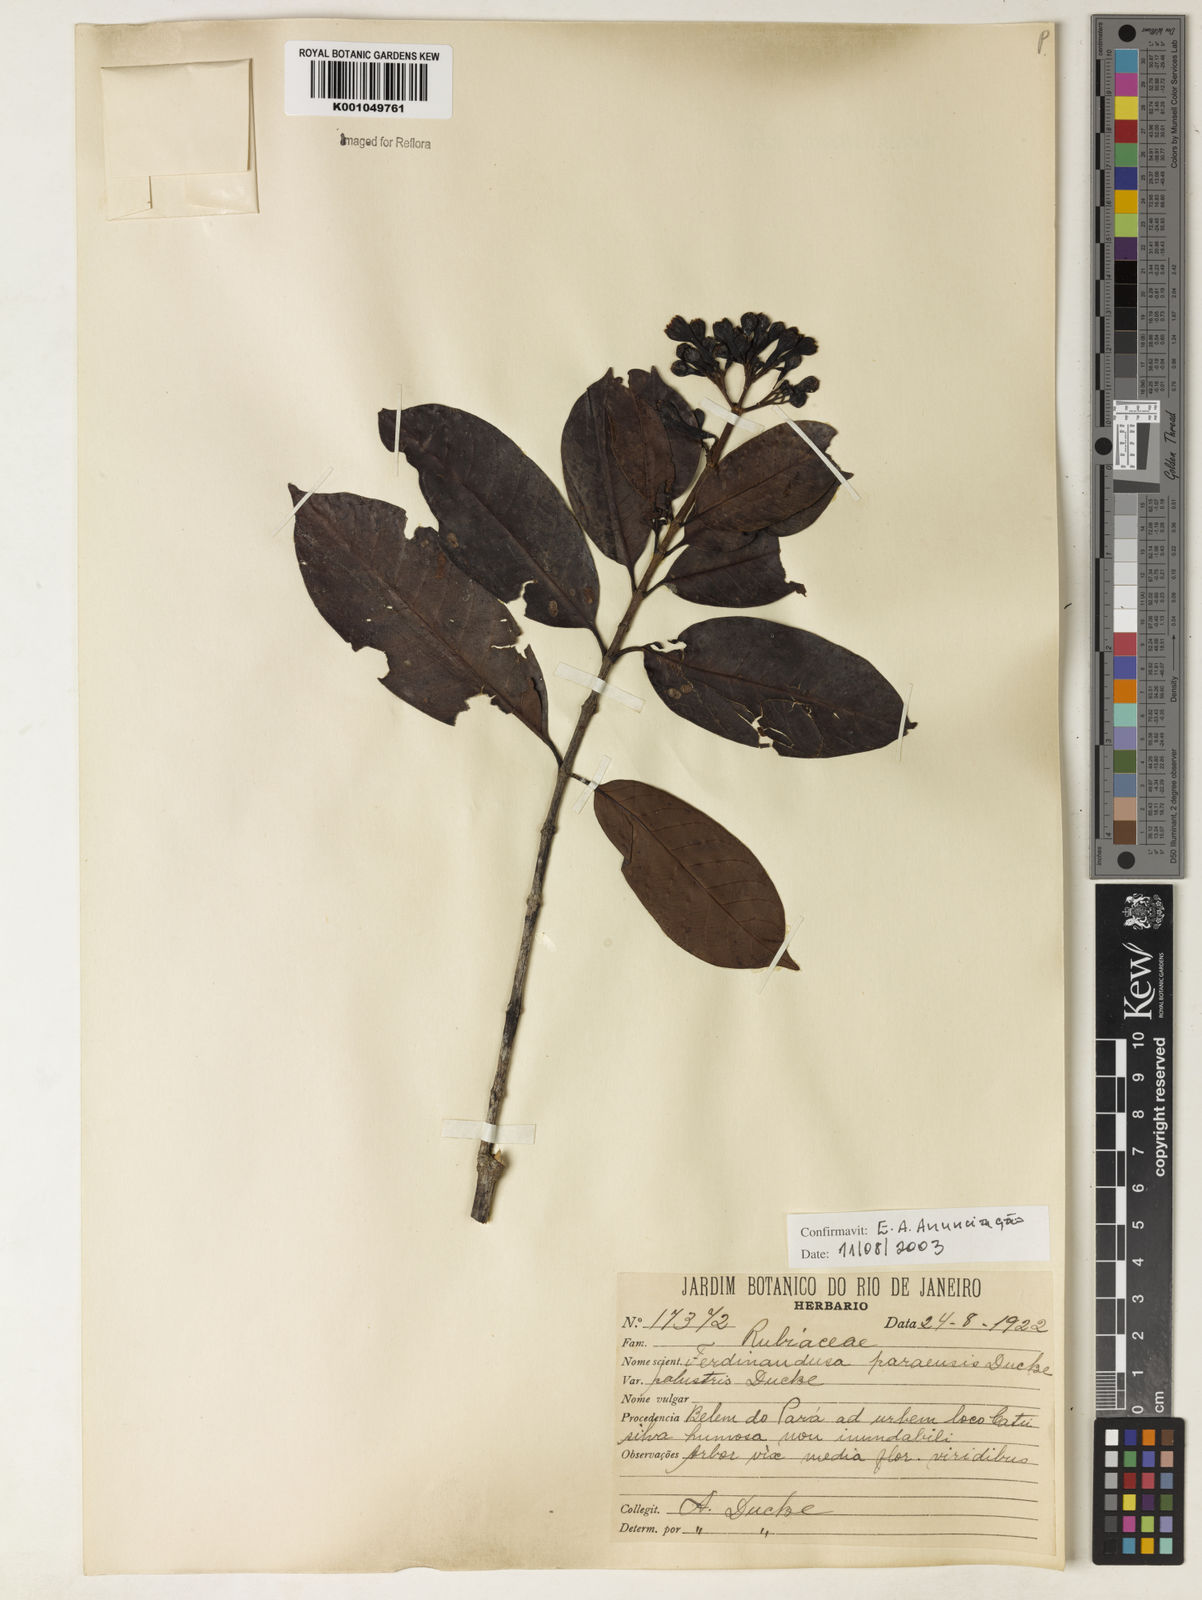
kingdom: Plantae
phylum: Tracheophyta
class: Magnoliopsida
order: Gentianales
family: Rubiaceae
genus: Ferdinandusa
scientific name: Ferdinandusa paraensis
